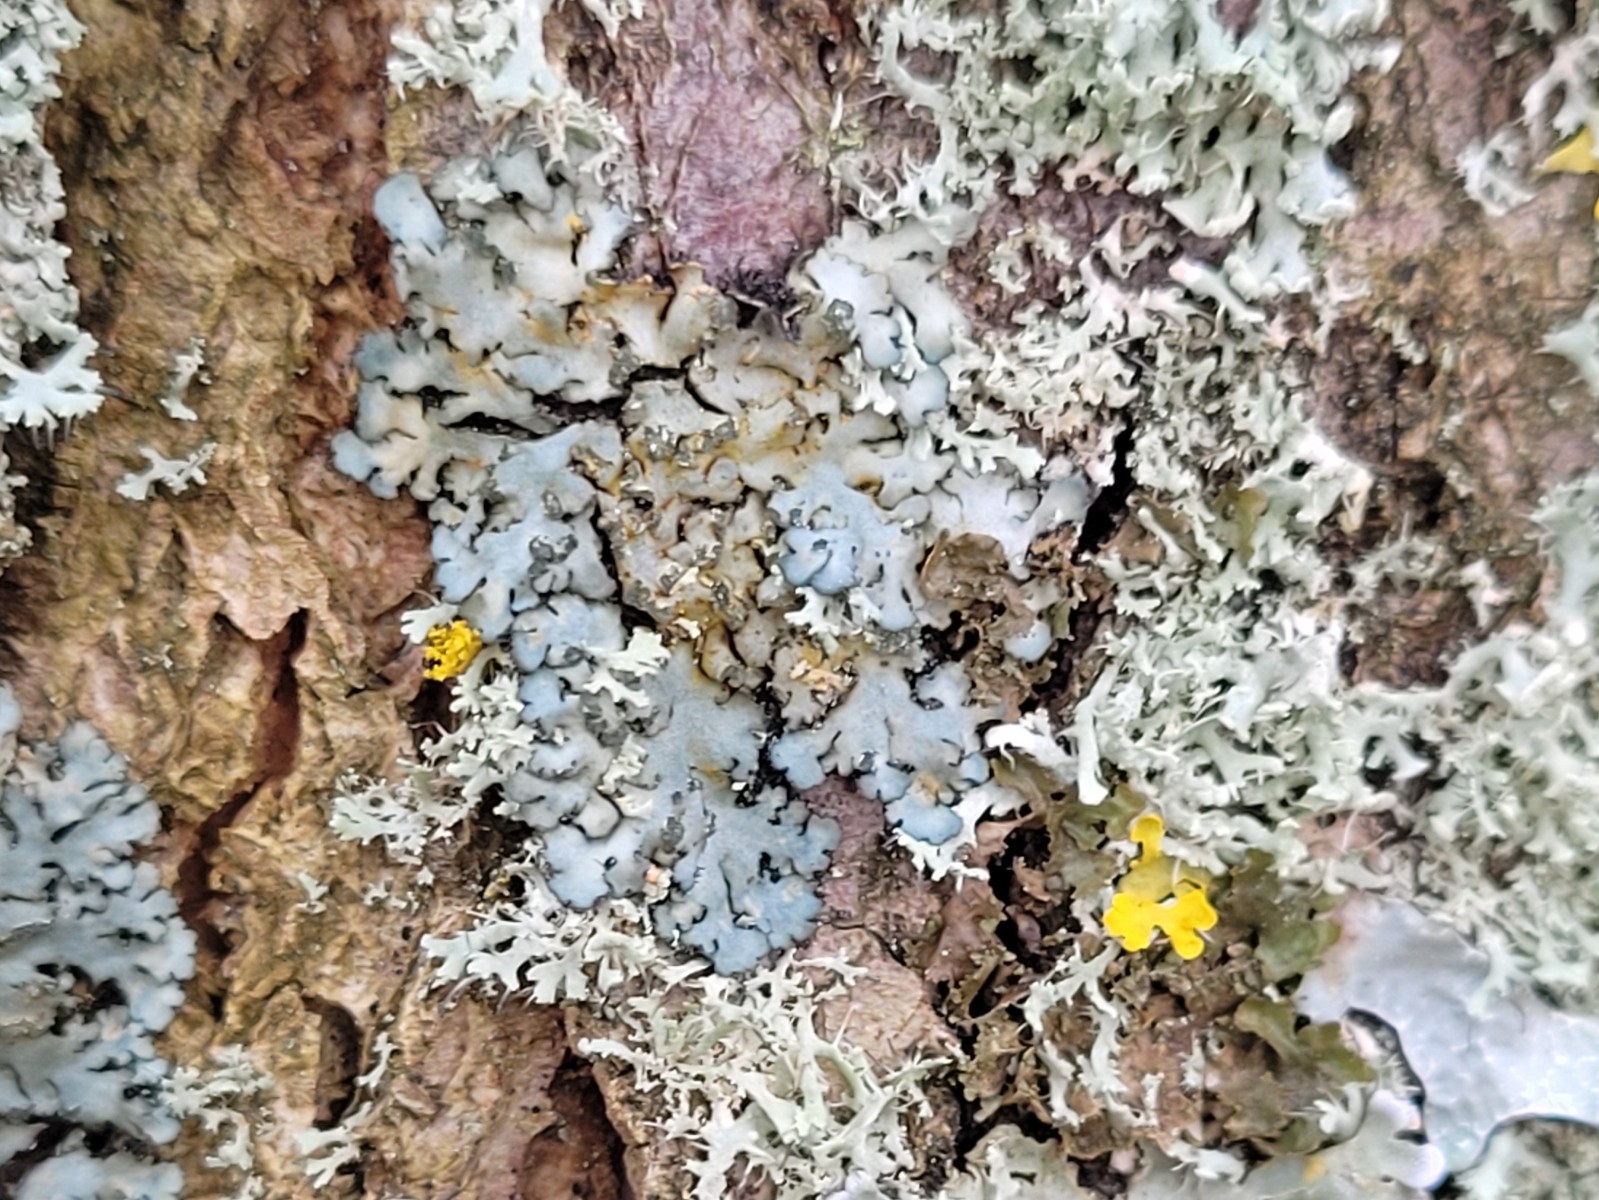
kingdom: Fungi
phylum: Ascomycota
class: Lecanoromycetes
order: Caliciales
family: Physciaceae
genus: Phaeophyscia
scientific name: Phaeophyscia orbicularis
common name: grågrøn rosetlav
